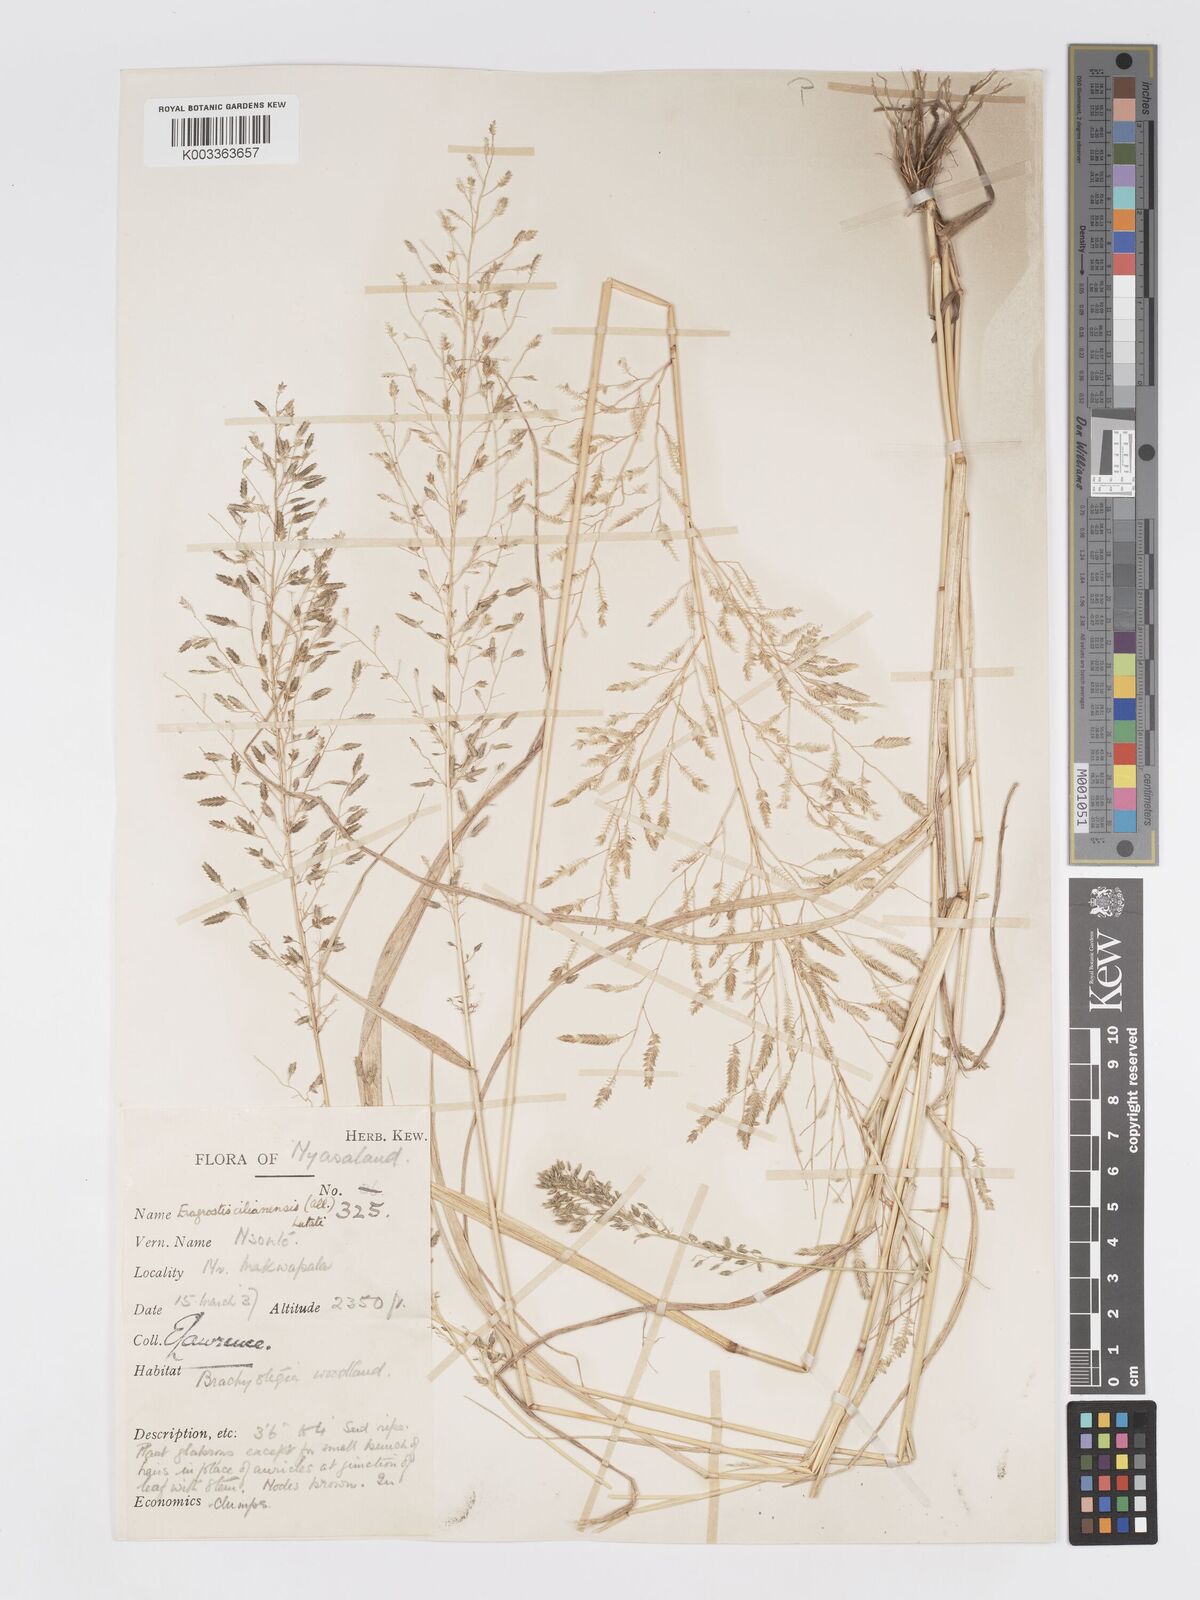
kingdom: Plantae
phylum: Tracheophyta
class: Liliopsida
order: Poales
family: Poaceae
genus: Eragrostis
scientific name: Eragrostis cilianensis
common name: Stinkgrass
